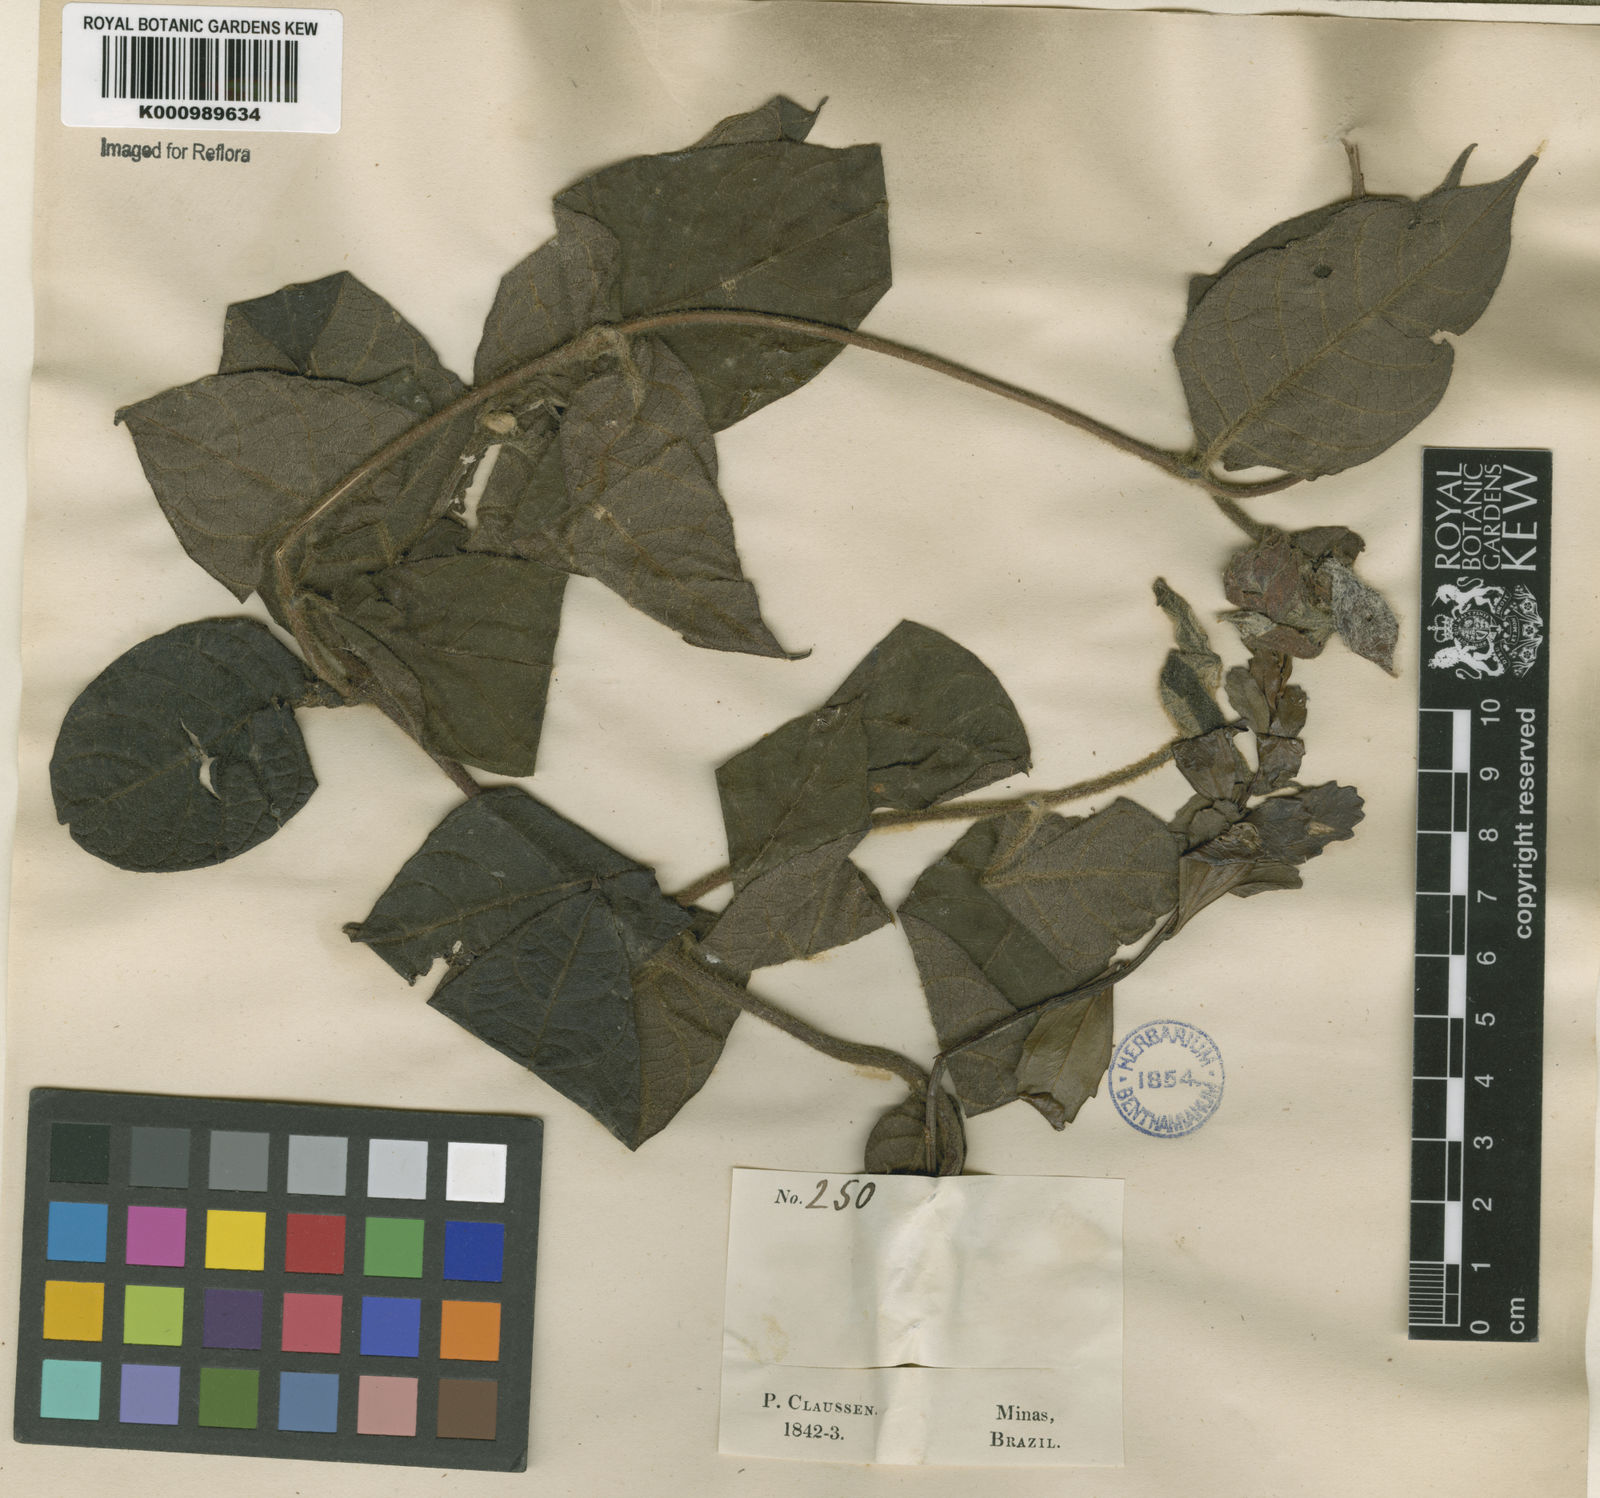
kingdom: Plantae
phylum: Tracheophyta
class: Magnoliopsida
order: Gentianales
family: Apocynaceae
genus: Mandevilla
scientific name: Mandevilla hirsuta
